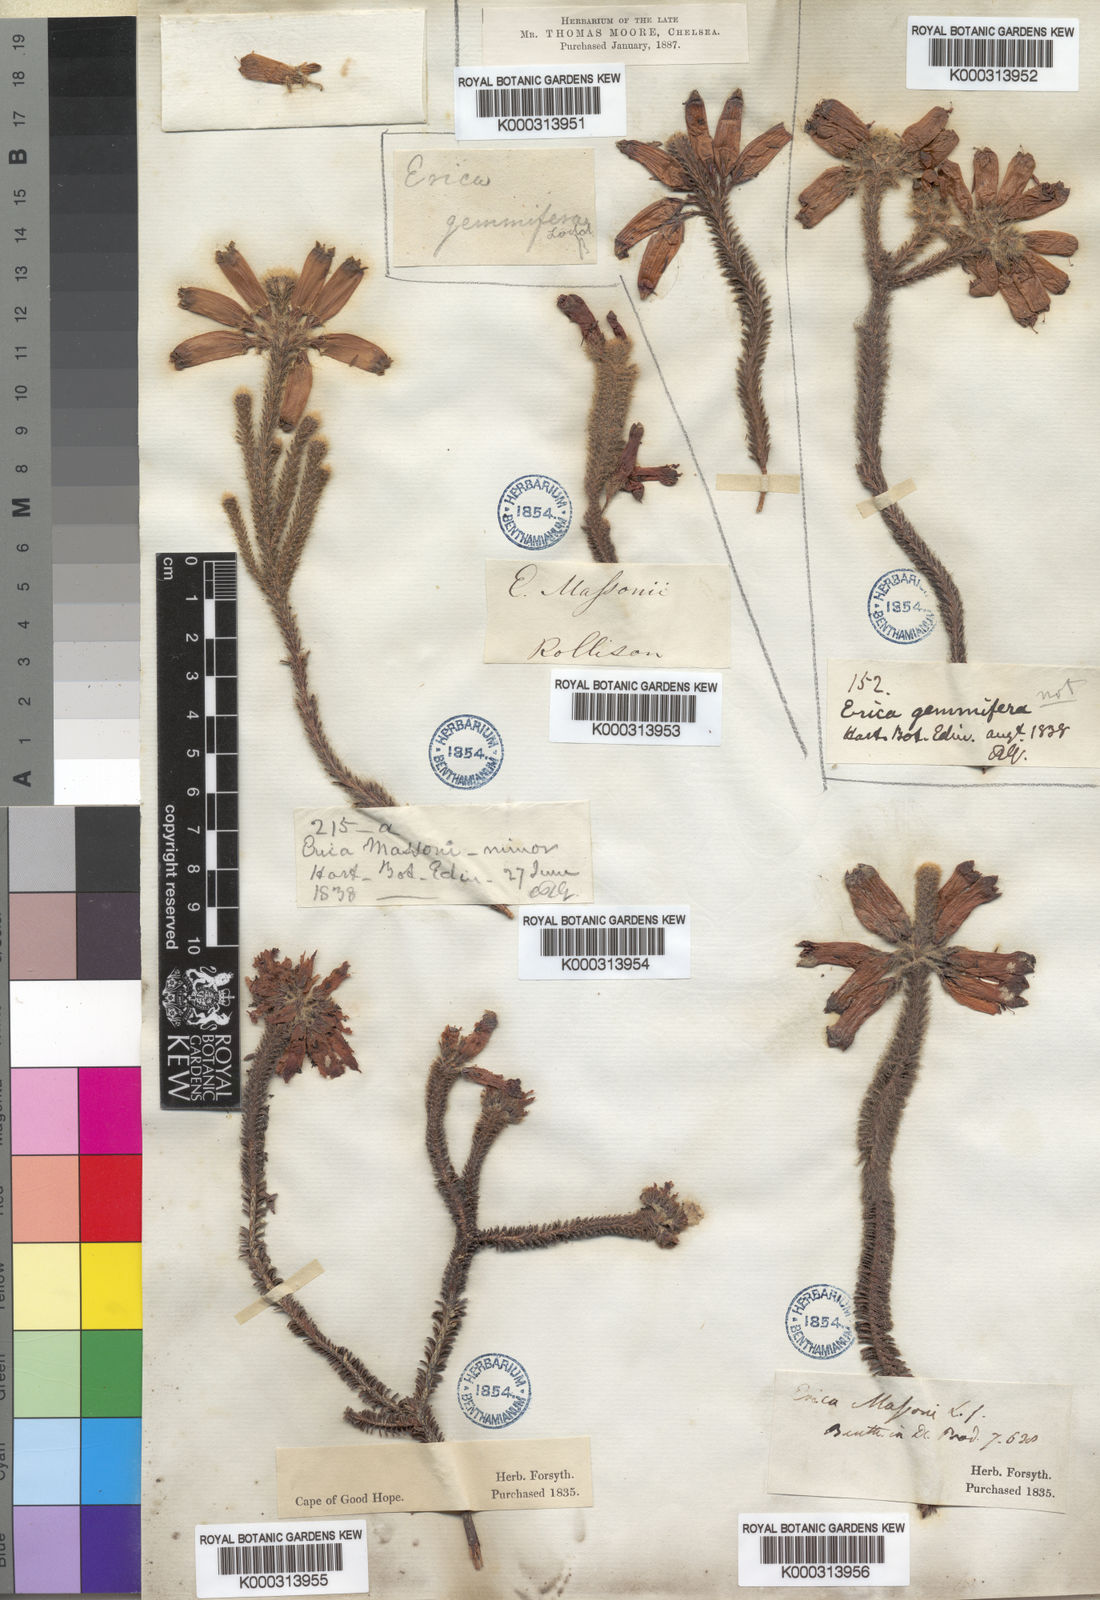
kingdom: Plantae
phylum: Tracheophyta
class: Magnoliopsida
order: Ericales
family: Ericaceae
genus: Erica
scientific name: Erica massonii
